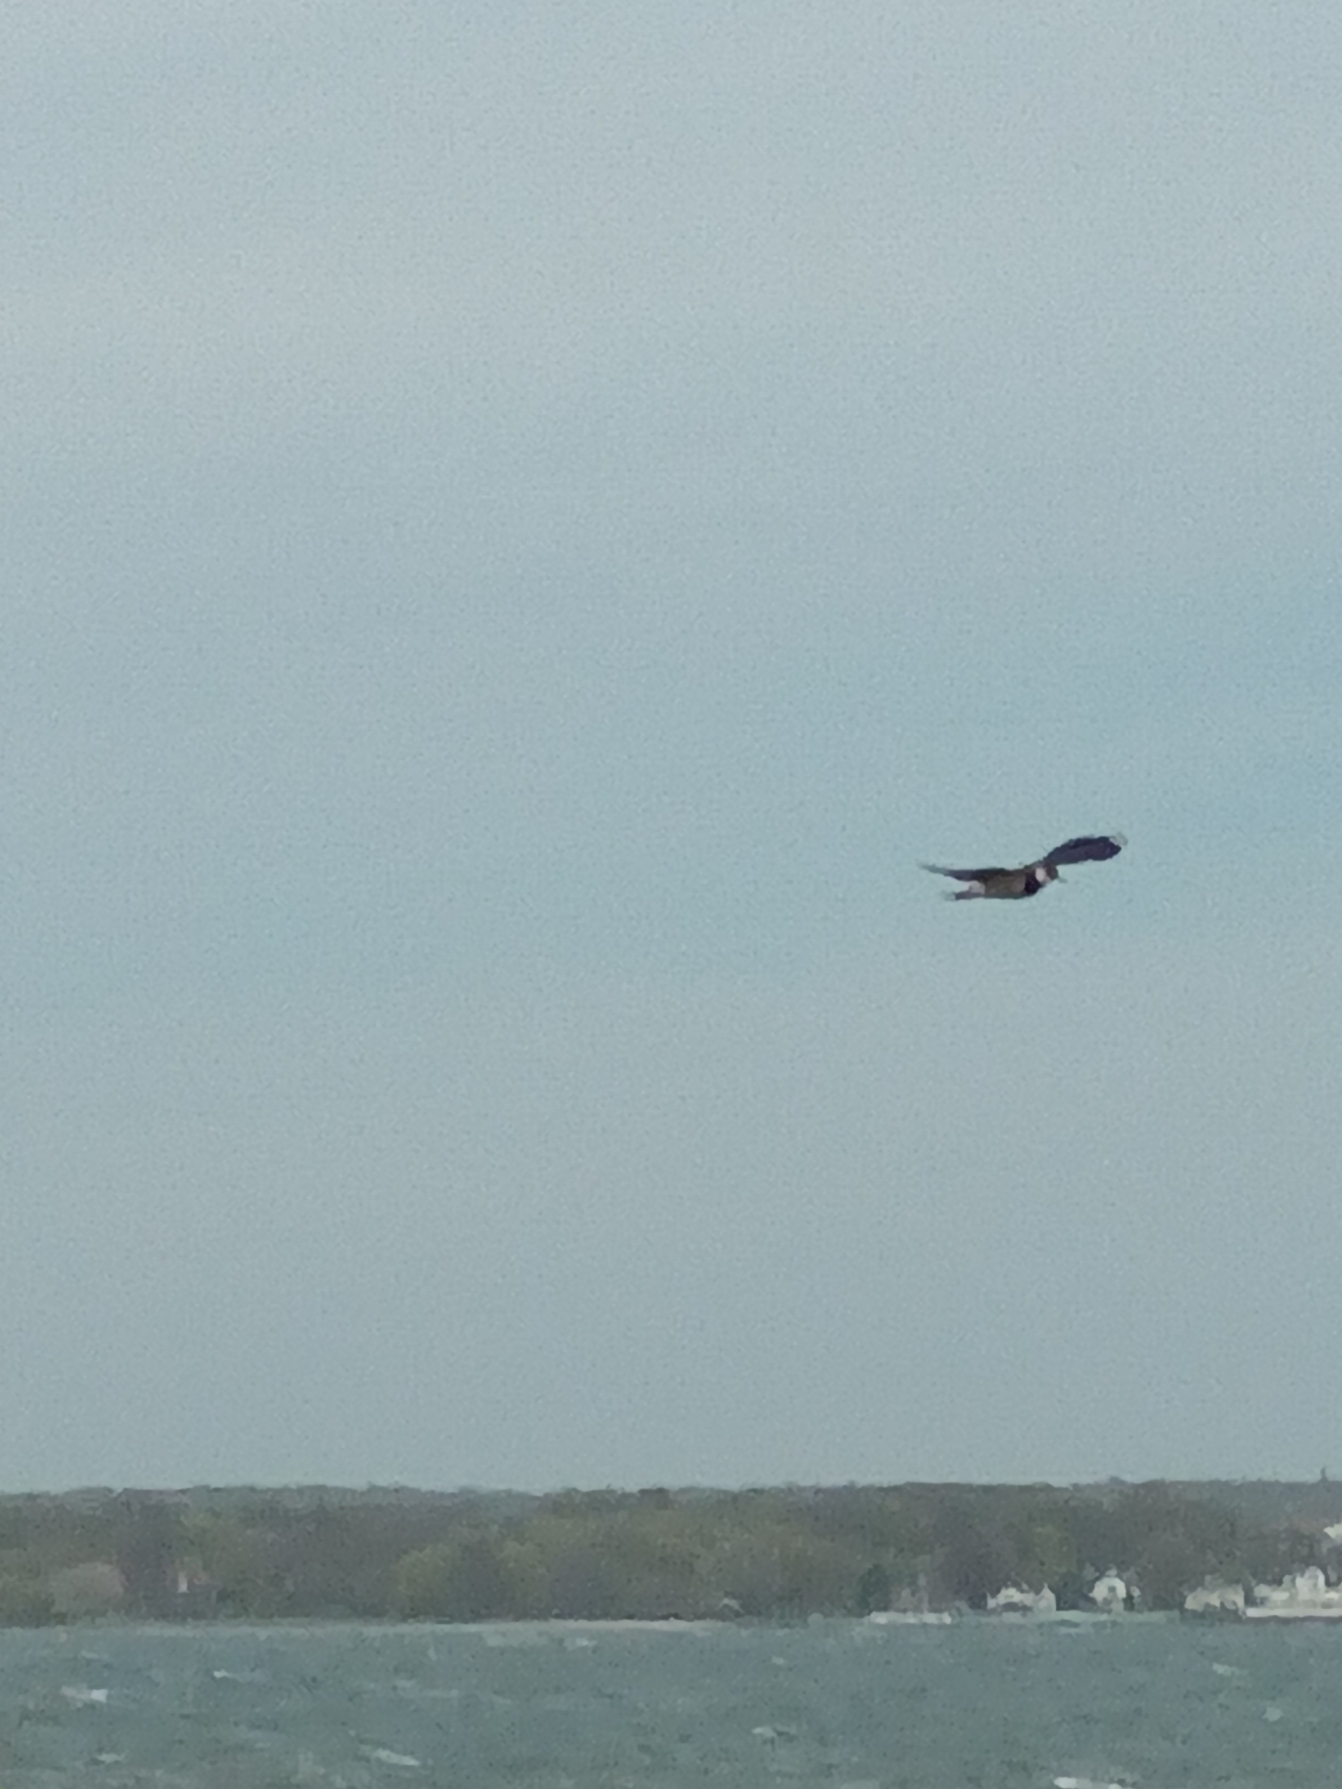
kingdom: Animalia
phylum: Chordata
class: Aves
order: Charadriiformes
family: Charadriidae
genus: Vanellus
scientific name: Vanellus vanellus
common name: Vibe
